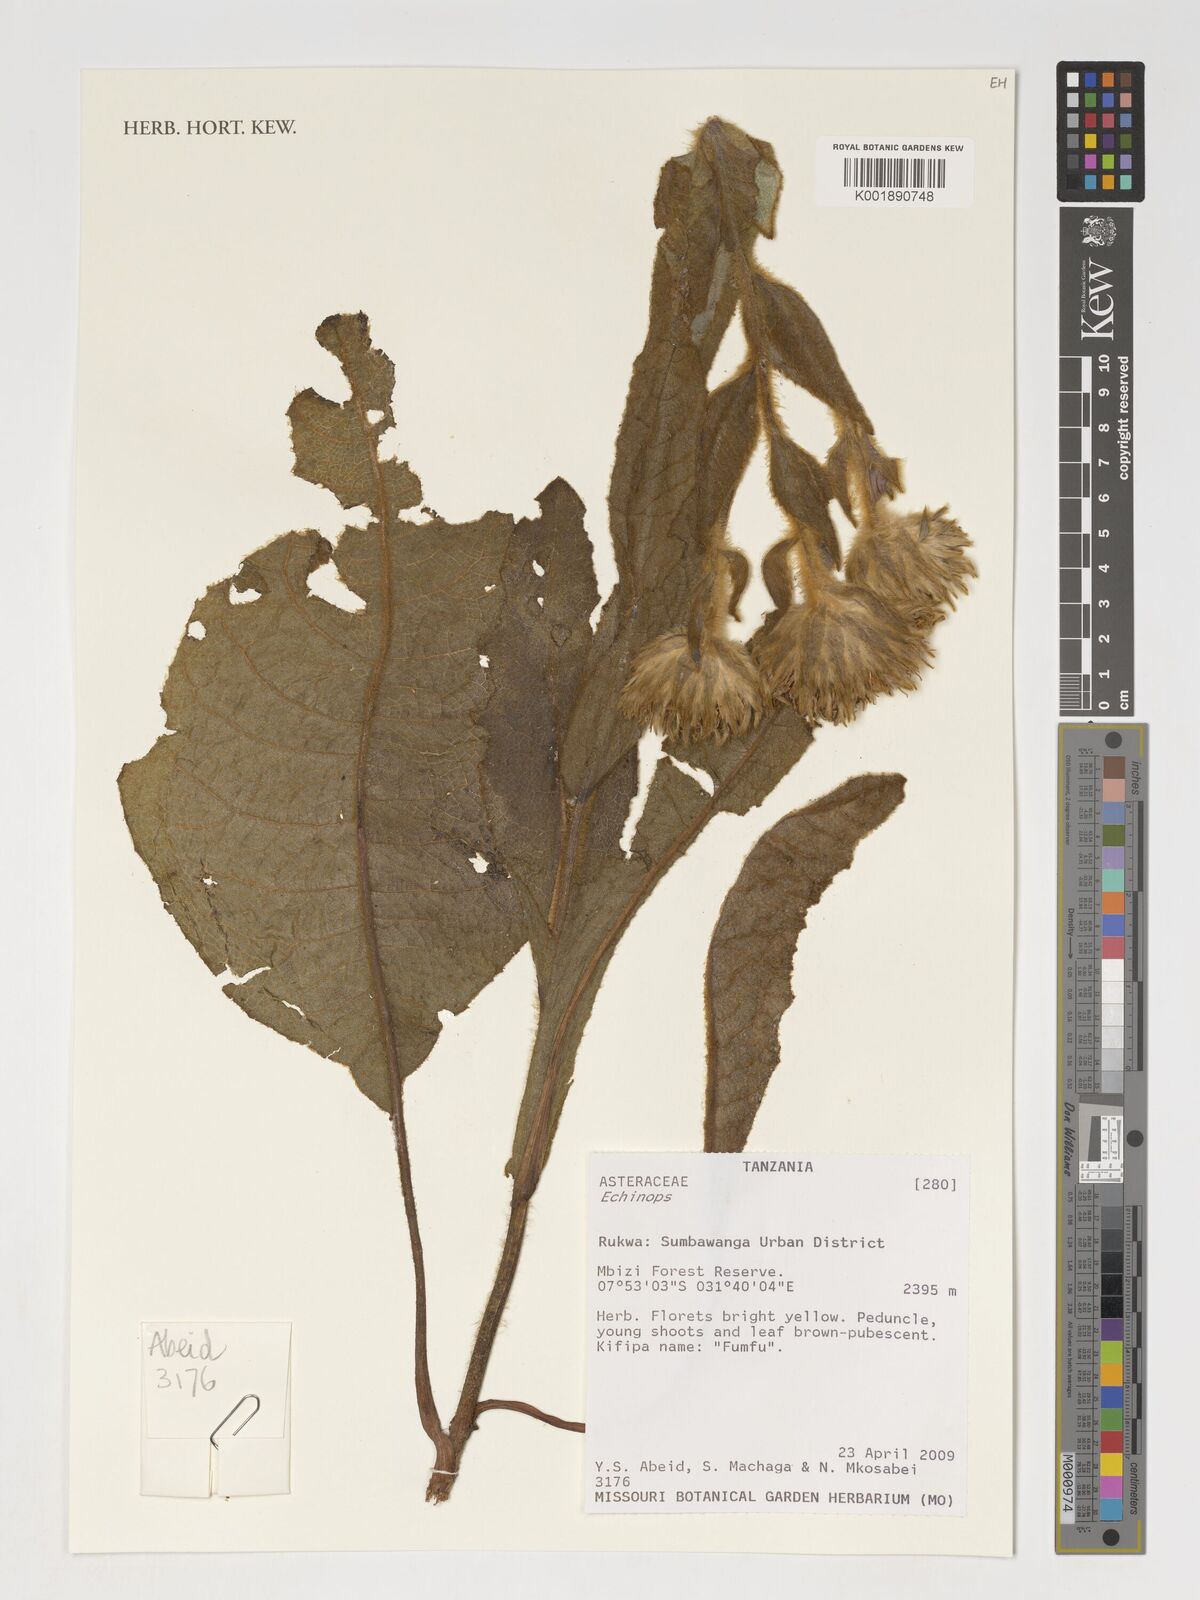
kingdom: Plantae
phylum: Tracheophyta
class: Magnoliopsida
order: Asterales
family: Asteraceae
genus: Echinops
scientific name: Echinops
